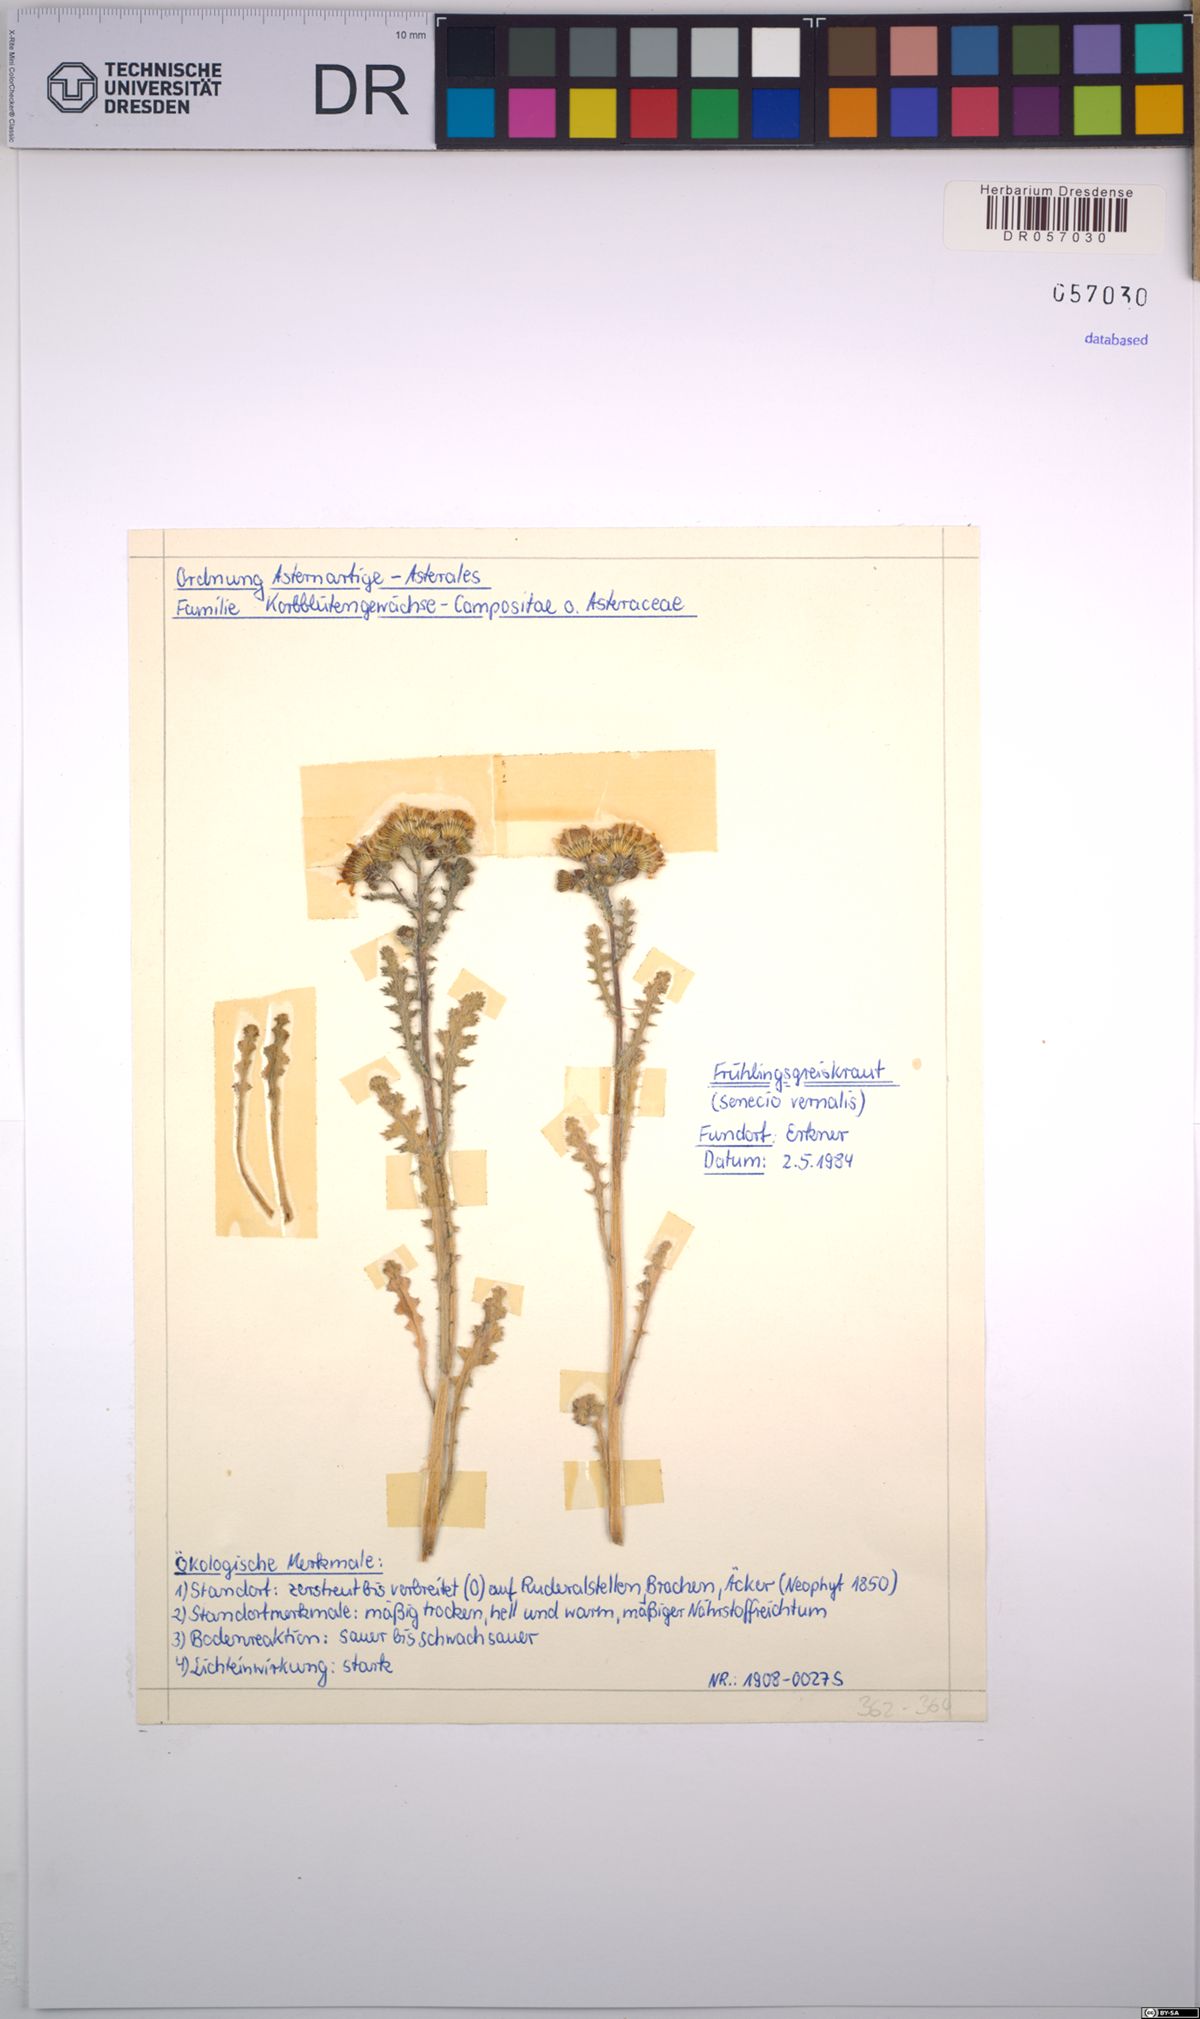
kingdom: Plantae
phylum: Tracheophyta
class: Magnoliopsida
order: Asterales
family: Asteraceae
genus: Senecio
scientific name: Senecio vernalis
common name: Eastern groundsel
